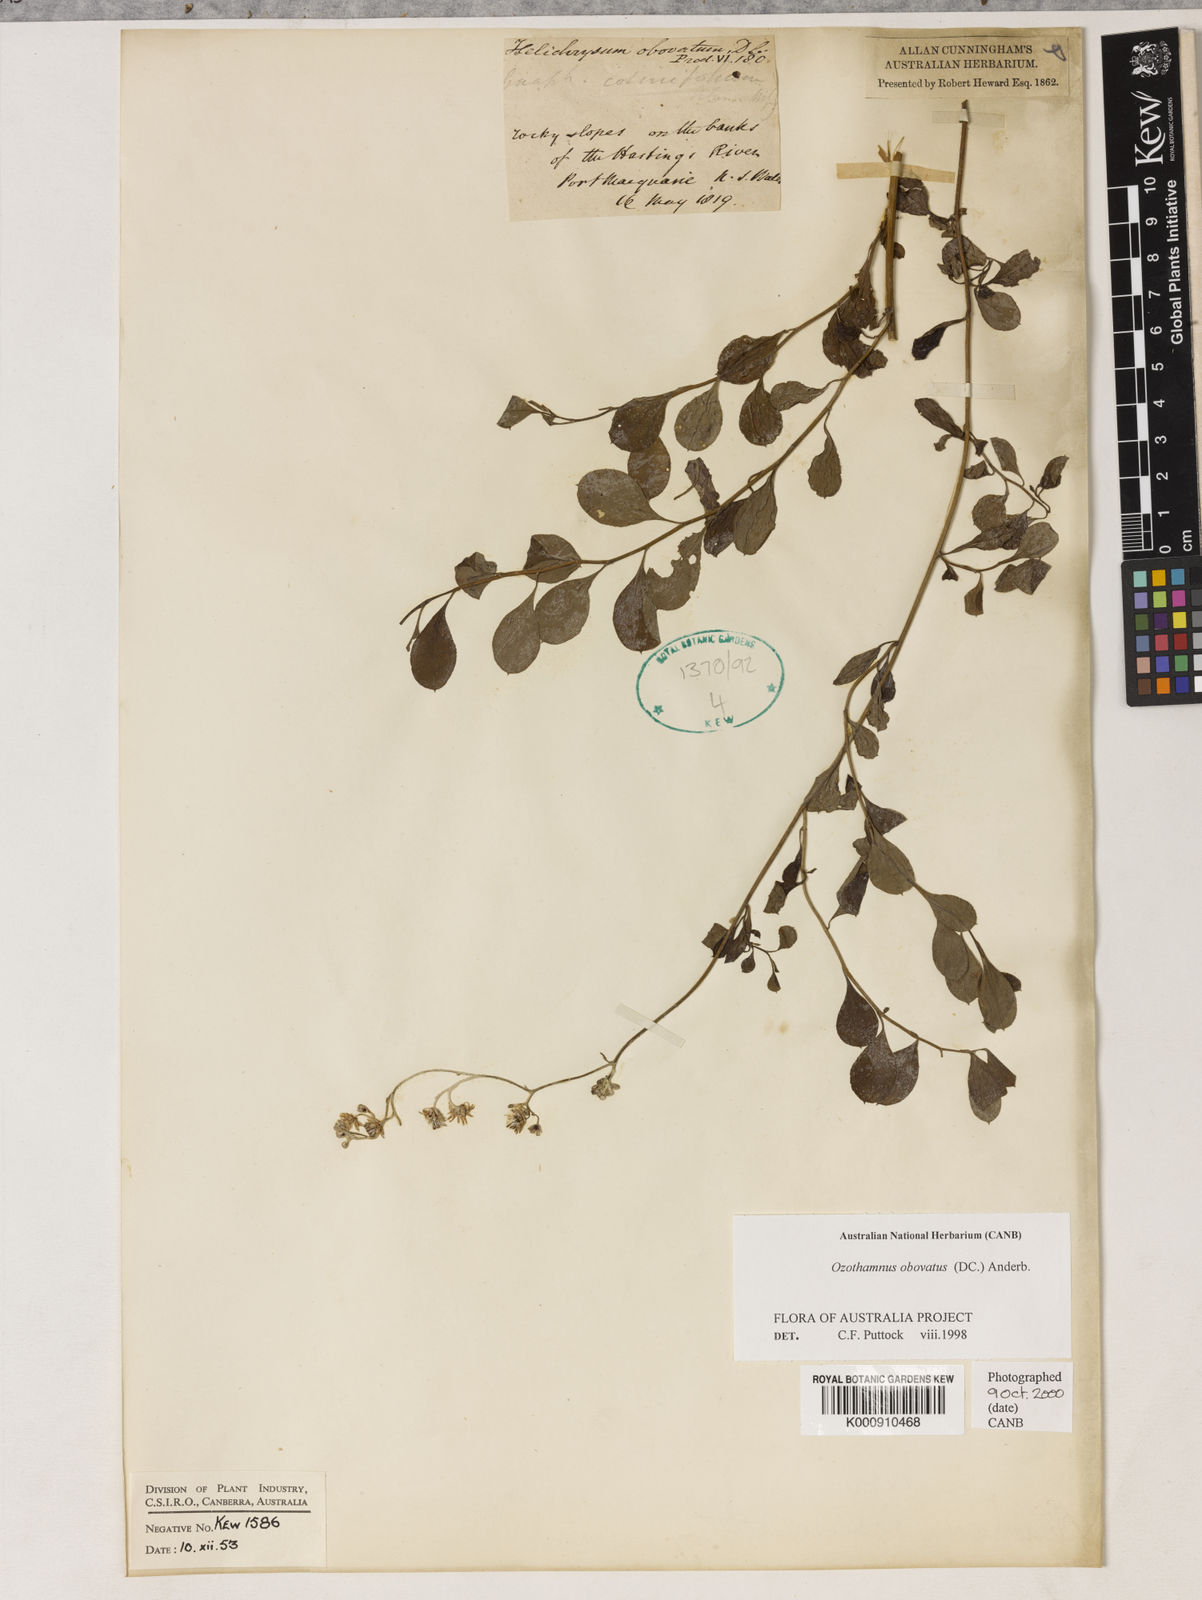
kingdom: Plantae
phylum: Tracheophyta
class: Magnoliopsida
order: Asterales
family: Asteraceae
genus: Ozothamnus
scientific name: Ozothamnus obovatus
